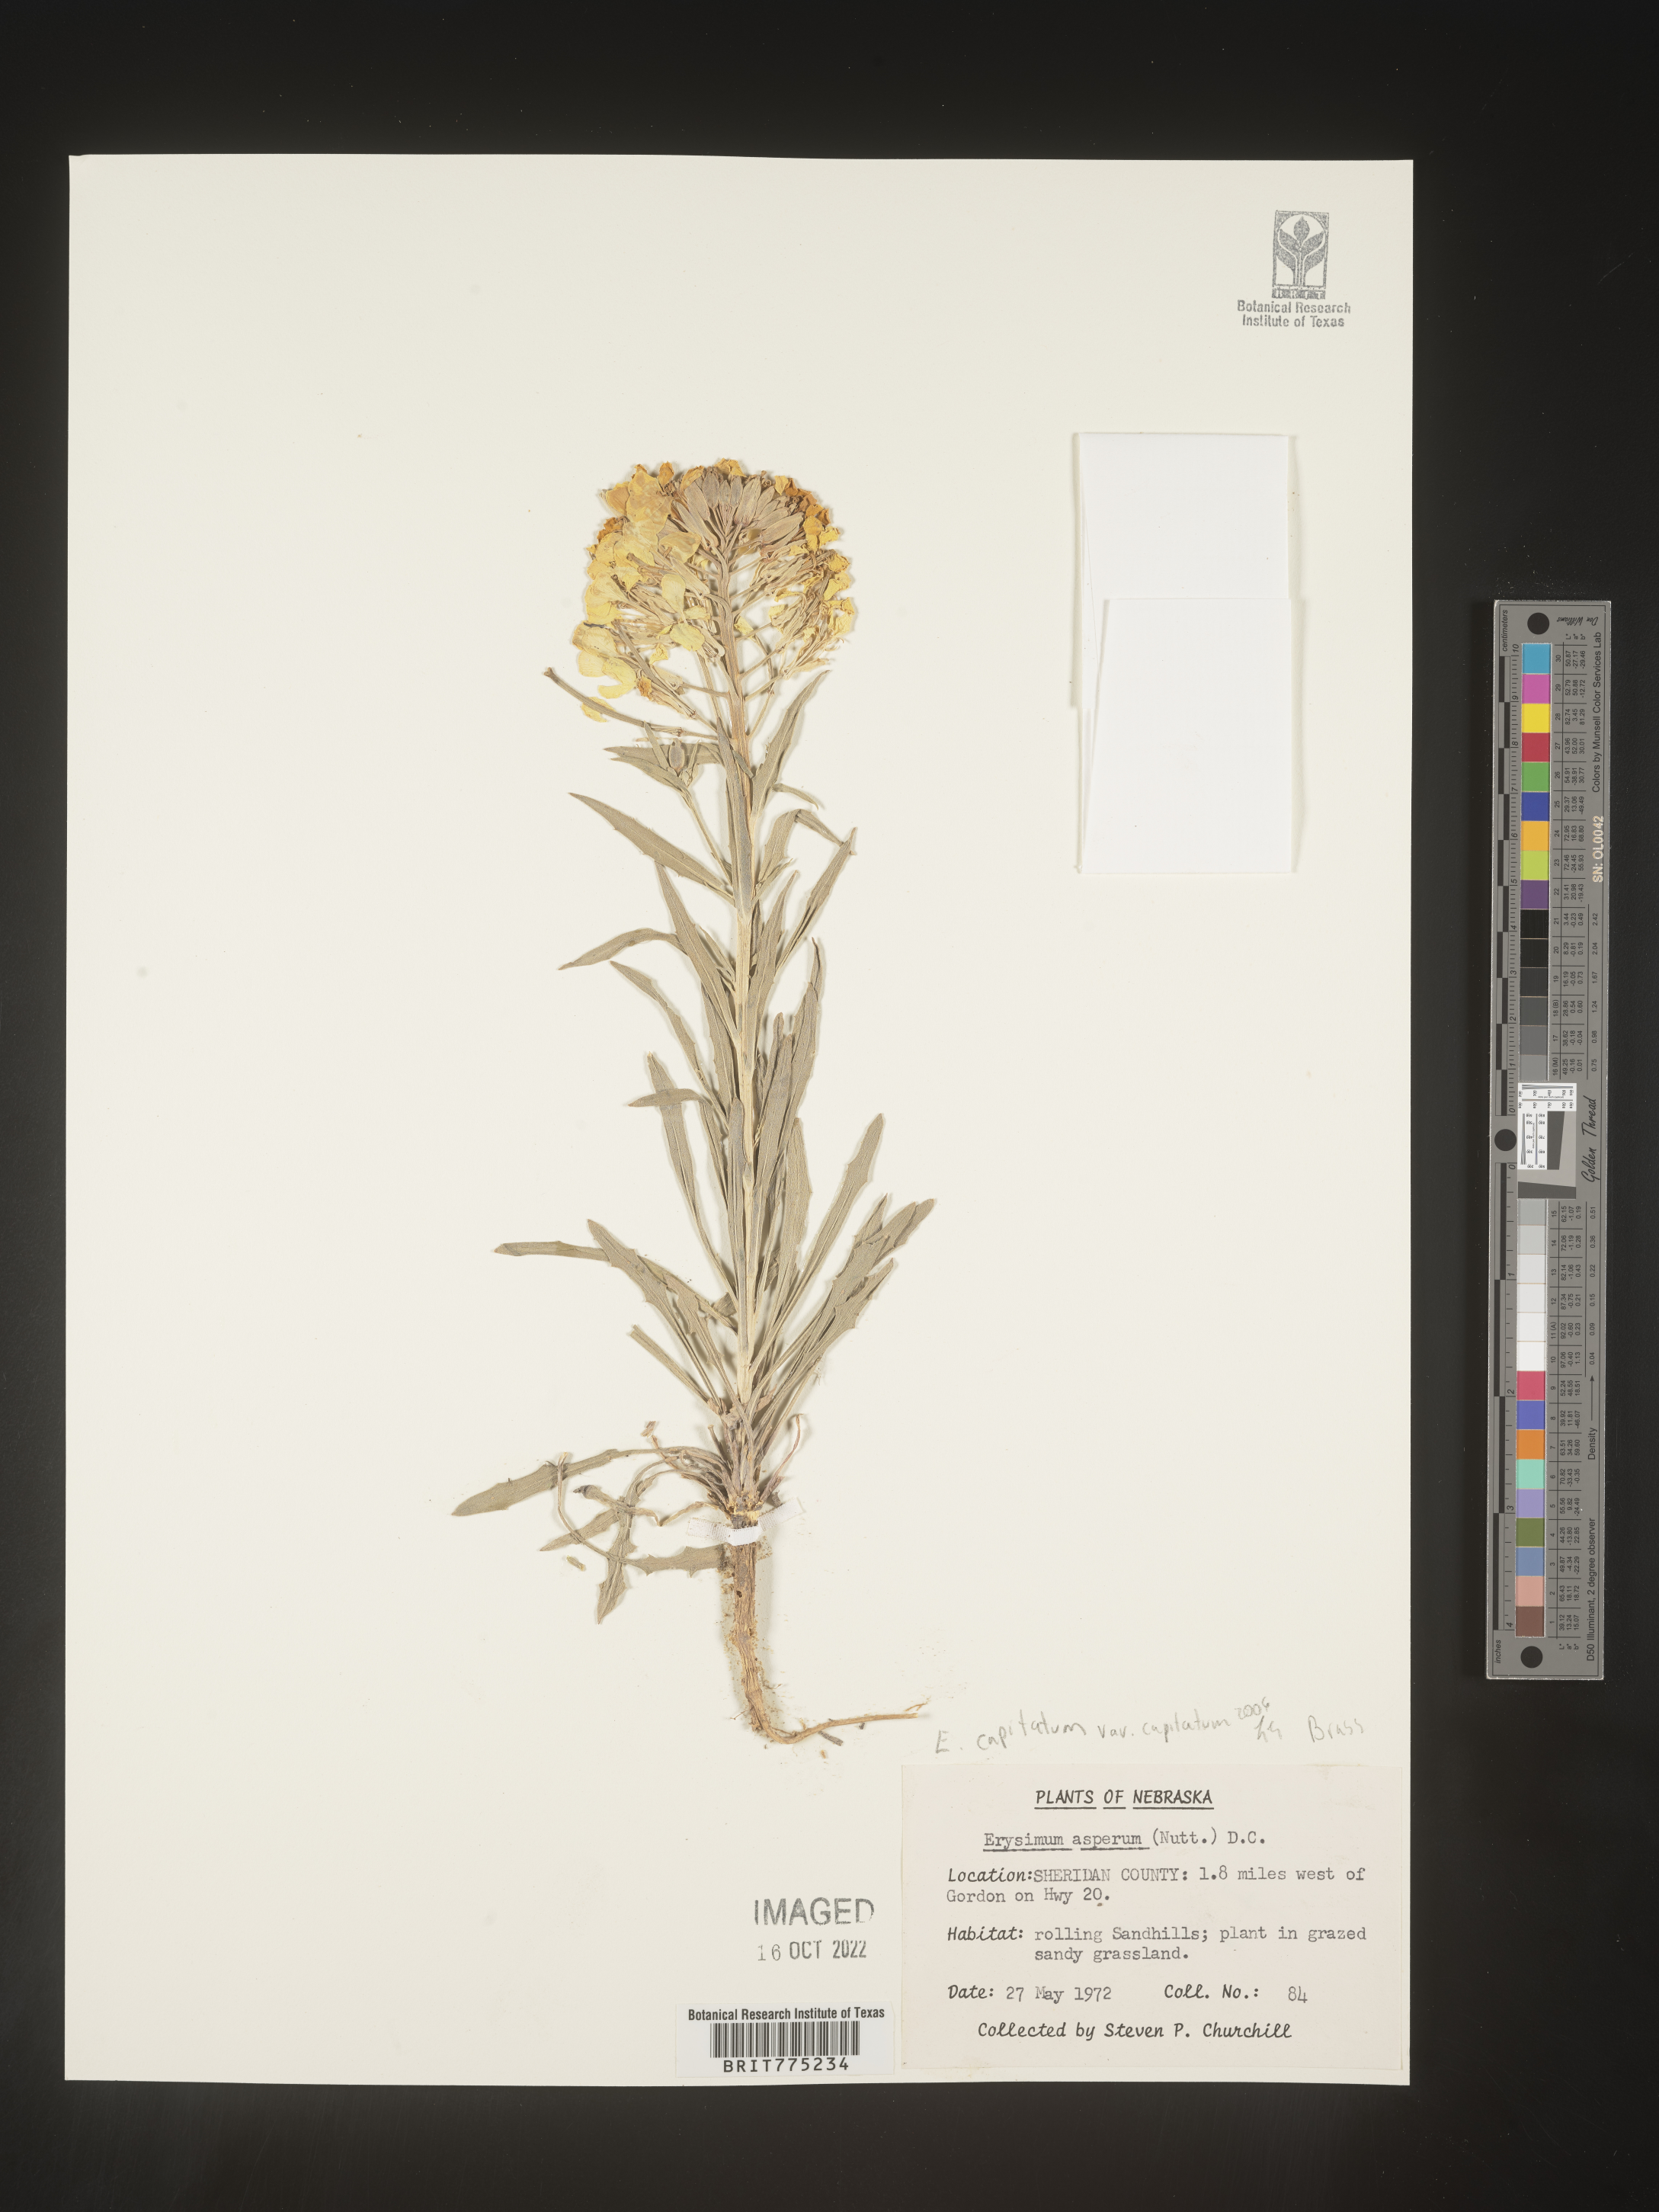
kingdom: Plantae
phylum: Tracheophyta
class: Magnoliopsida
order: Brassicales
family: Brassicaceae
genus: Erysimum
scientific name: Erysimum capitatum
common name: Western wallflower
